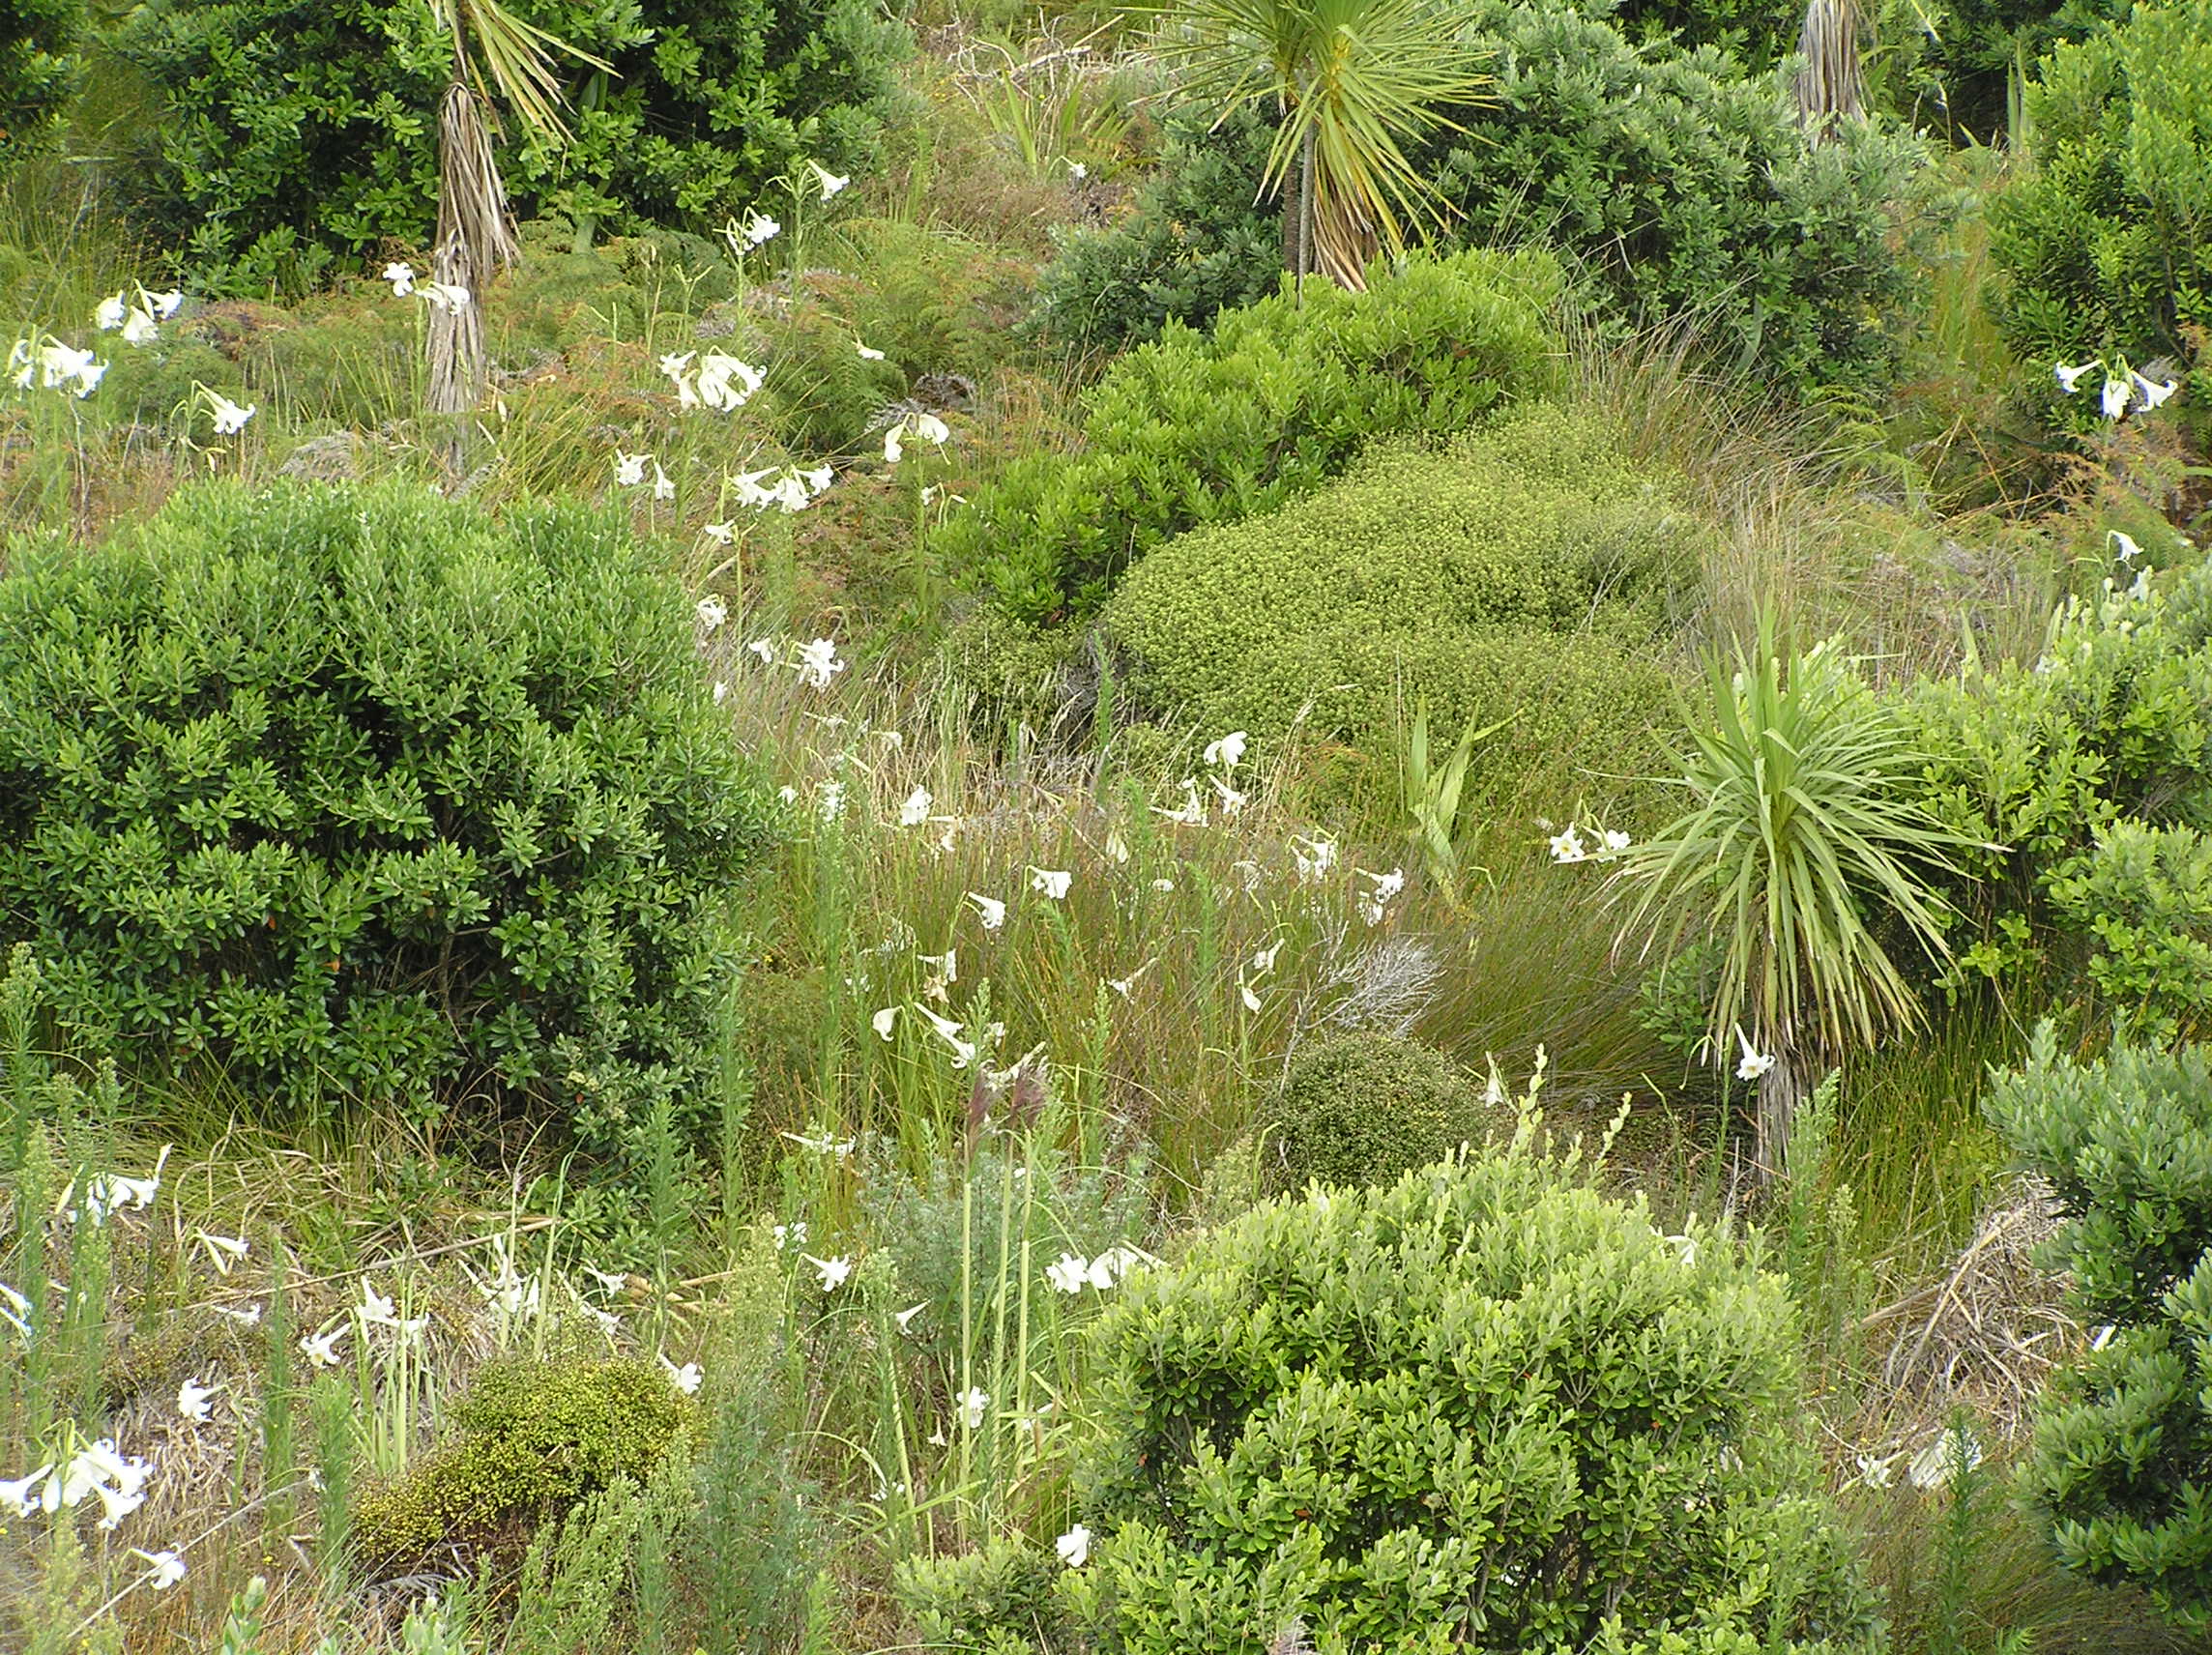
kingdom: Plantae
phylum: Tracheophyta
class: Liliopsida
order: Liliales
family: Liliaceae
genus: Lilium
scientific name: Lilium formosanum
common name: Formosa lily
